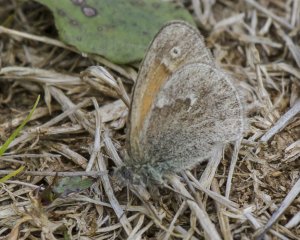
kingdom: Animalia
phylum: Arthropoda
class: Insecta
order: Lepidoptera
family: Nymphalidae
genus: Coenonympha
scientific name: Coenonympha tullia
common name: Large Heath
